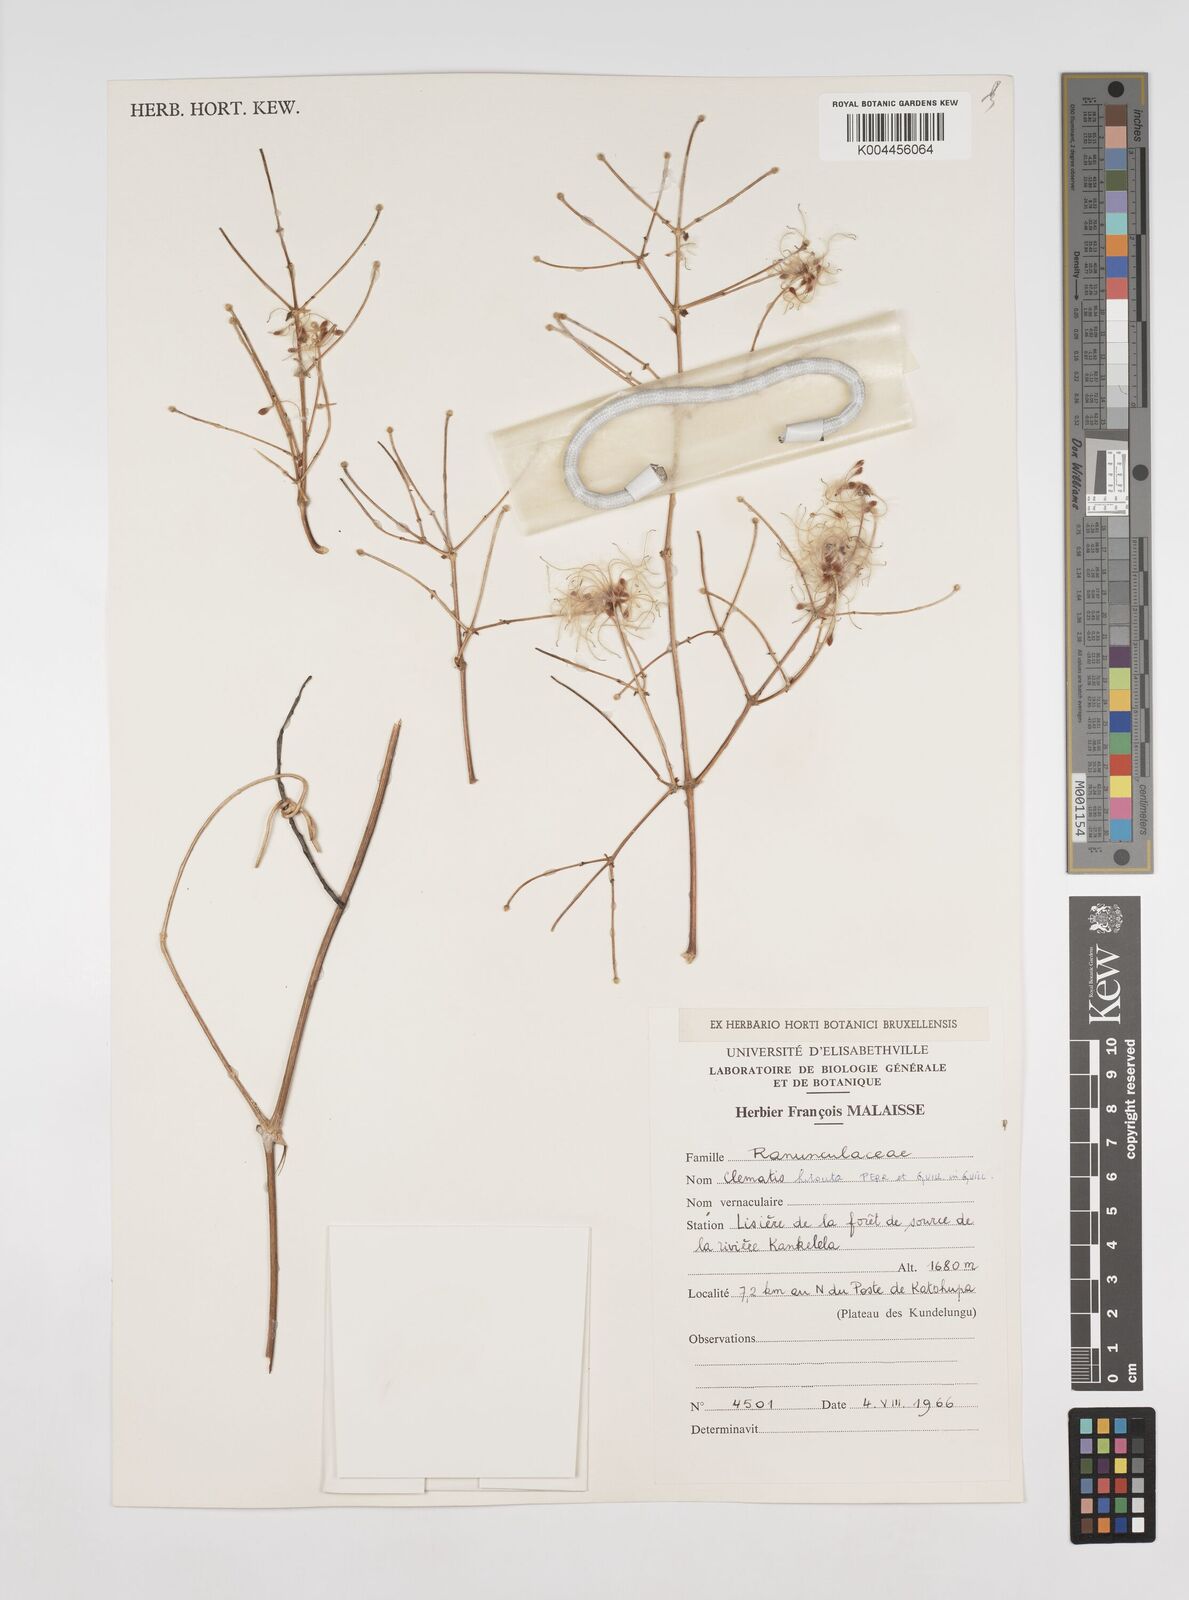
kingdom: Plantae
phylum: Tracheophyta
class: Magnoliopsida
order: Ranunculales
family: Ranunculaceae
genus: Clematis
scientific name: Clematis hirsuta
